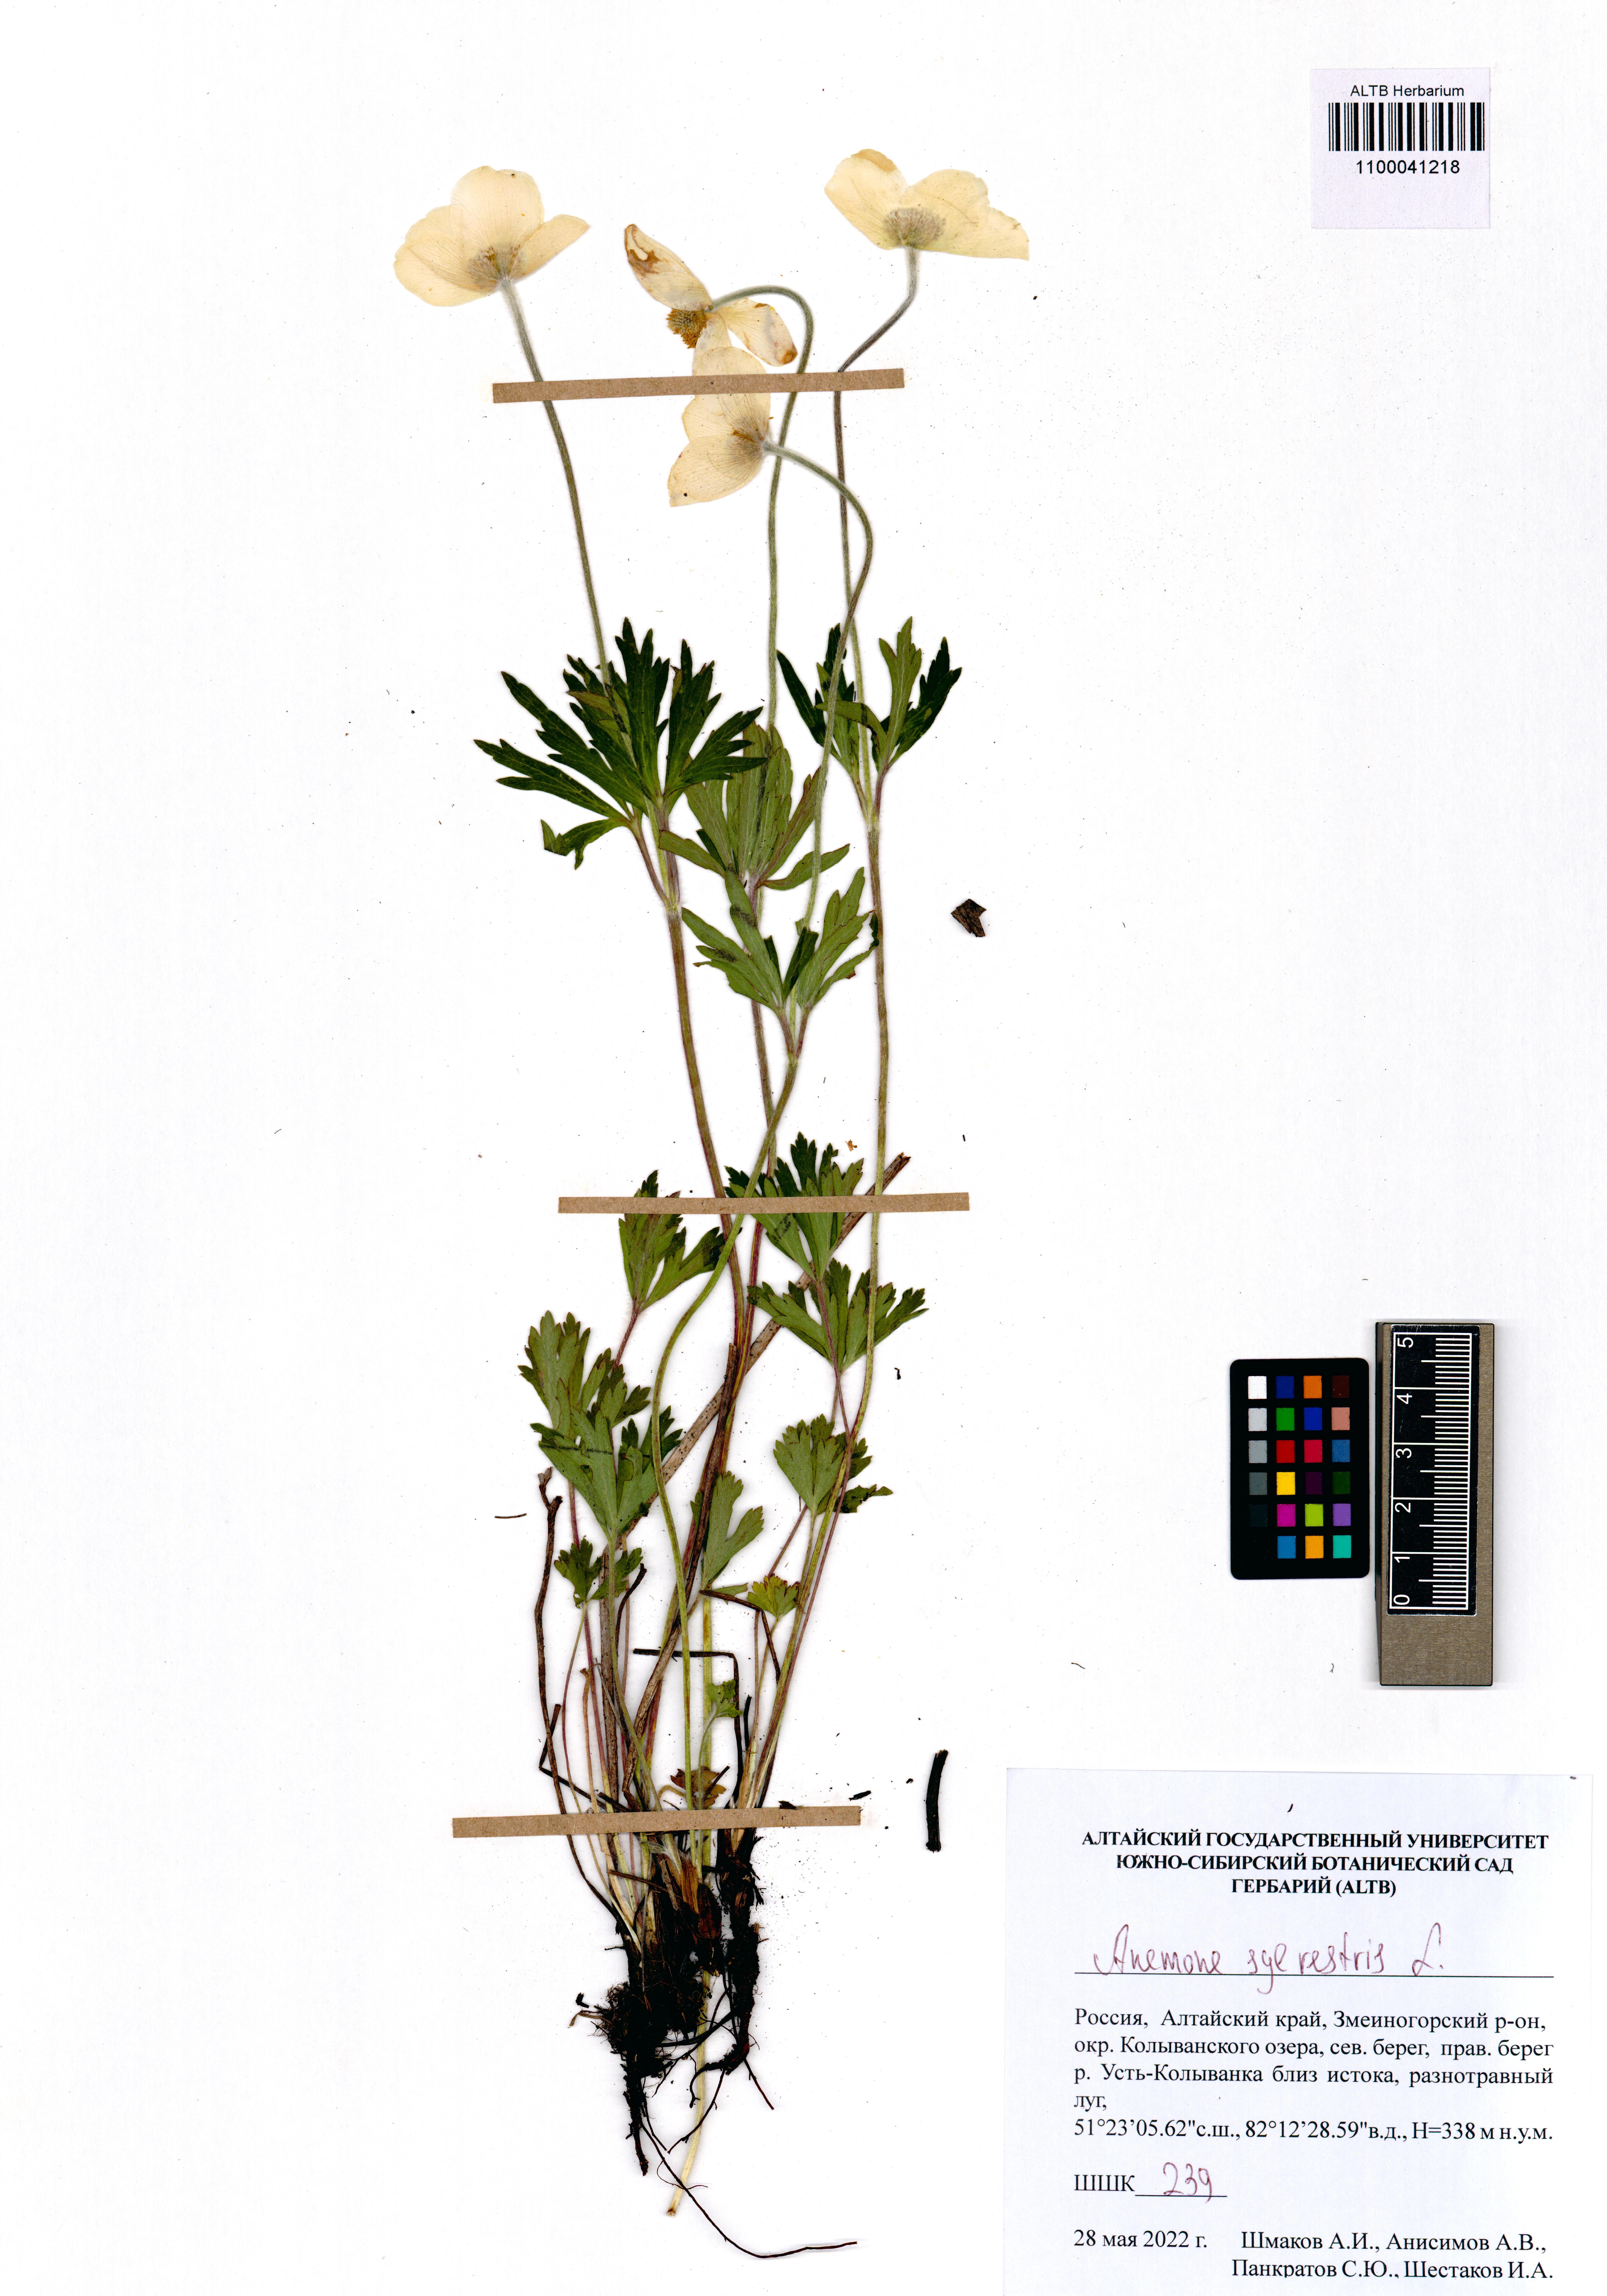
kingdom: Plantae
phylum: Tracheophyta
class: Magnoliopsida
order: Ranunculales
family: Ranunculaceae
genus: Anemone
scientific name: Anemone sylvestris
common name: Snowdrop anemone
